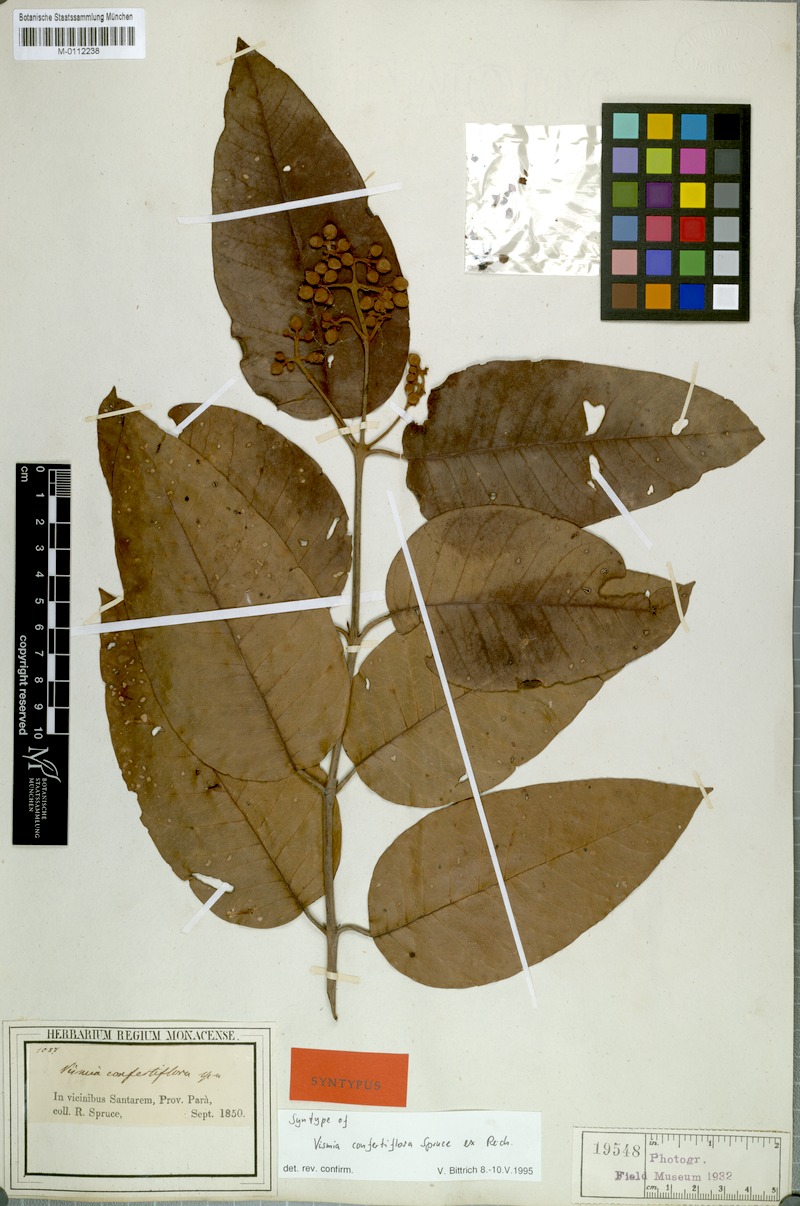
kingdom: Plantae
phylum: Tracheophyta
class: Magnoliopsida
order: Malpighiales
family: Hypericaceae
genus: Vismia
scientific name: Vismia baccifera
